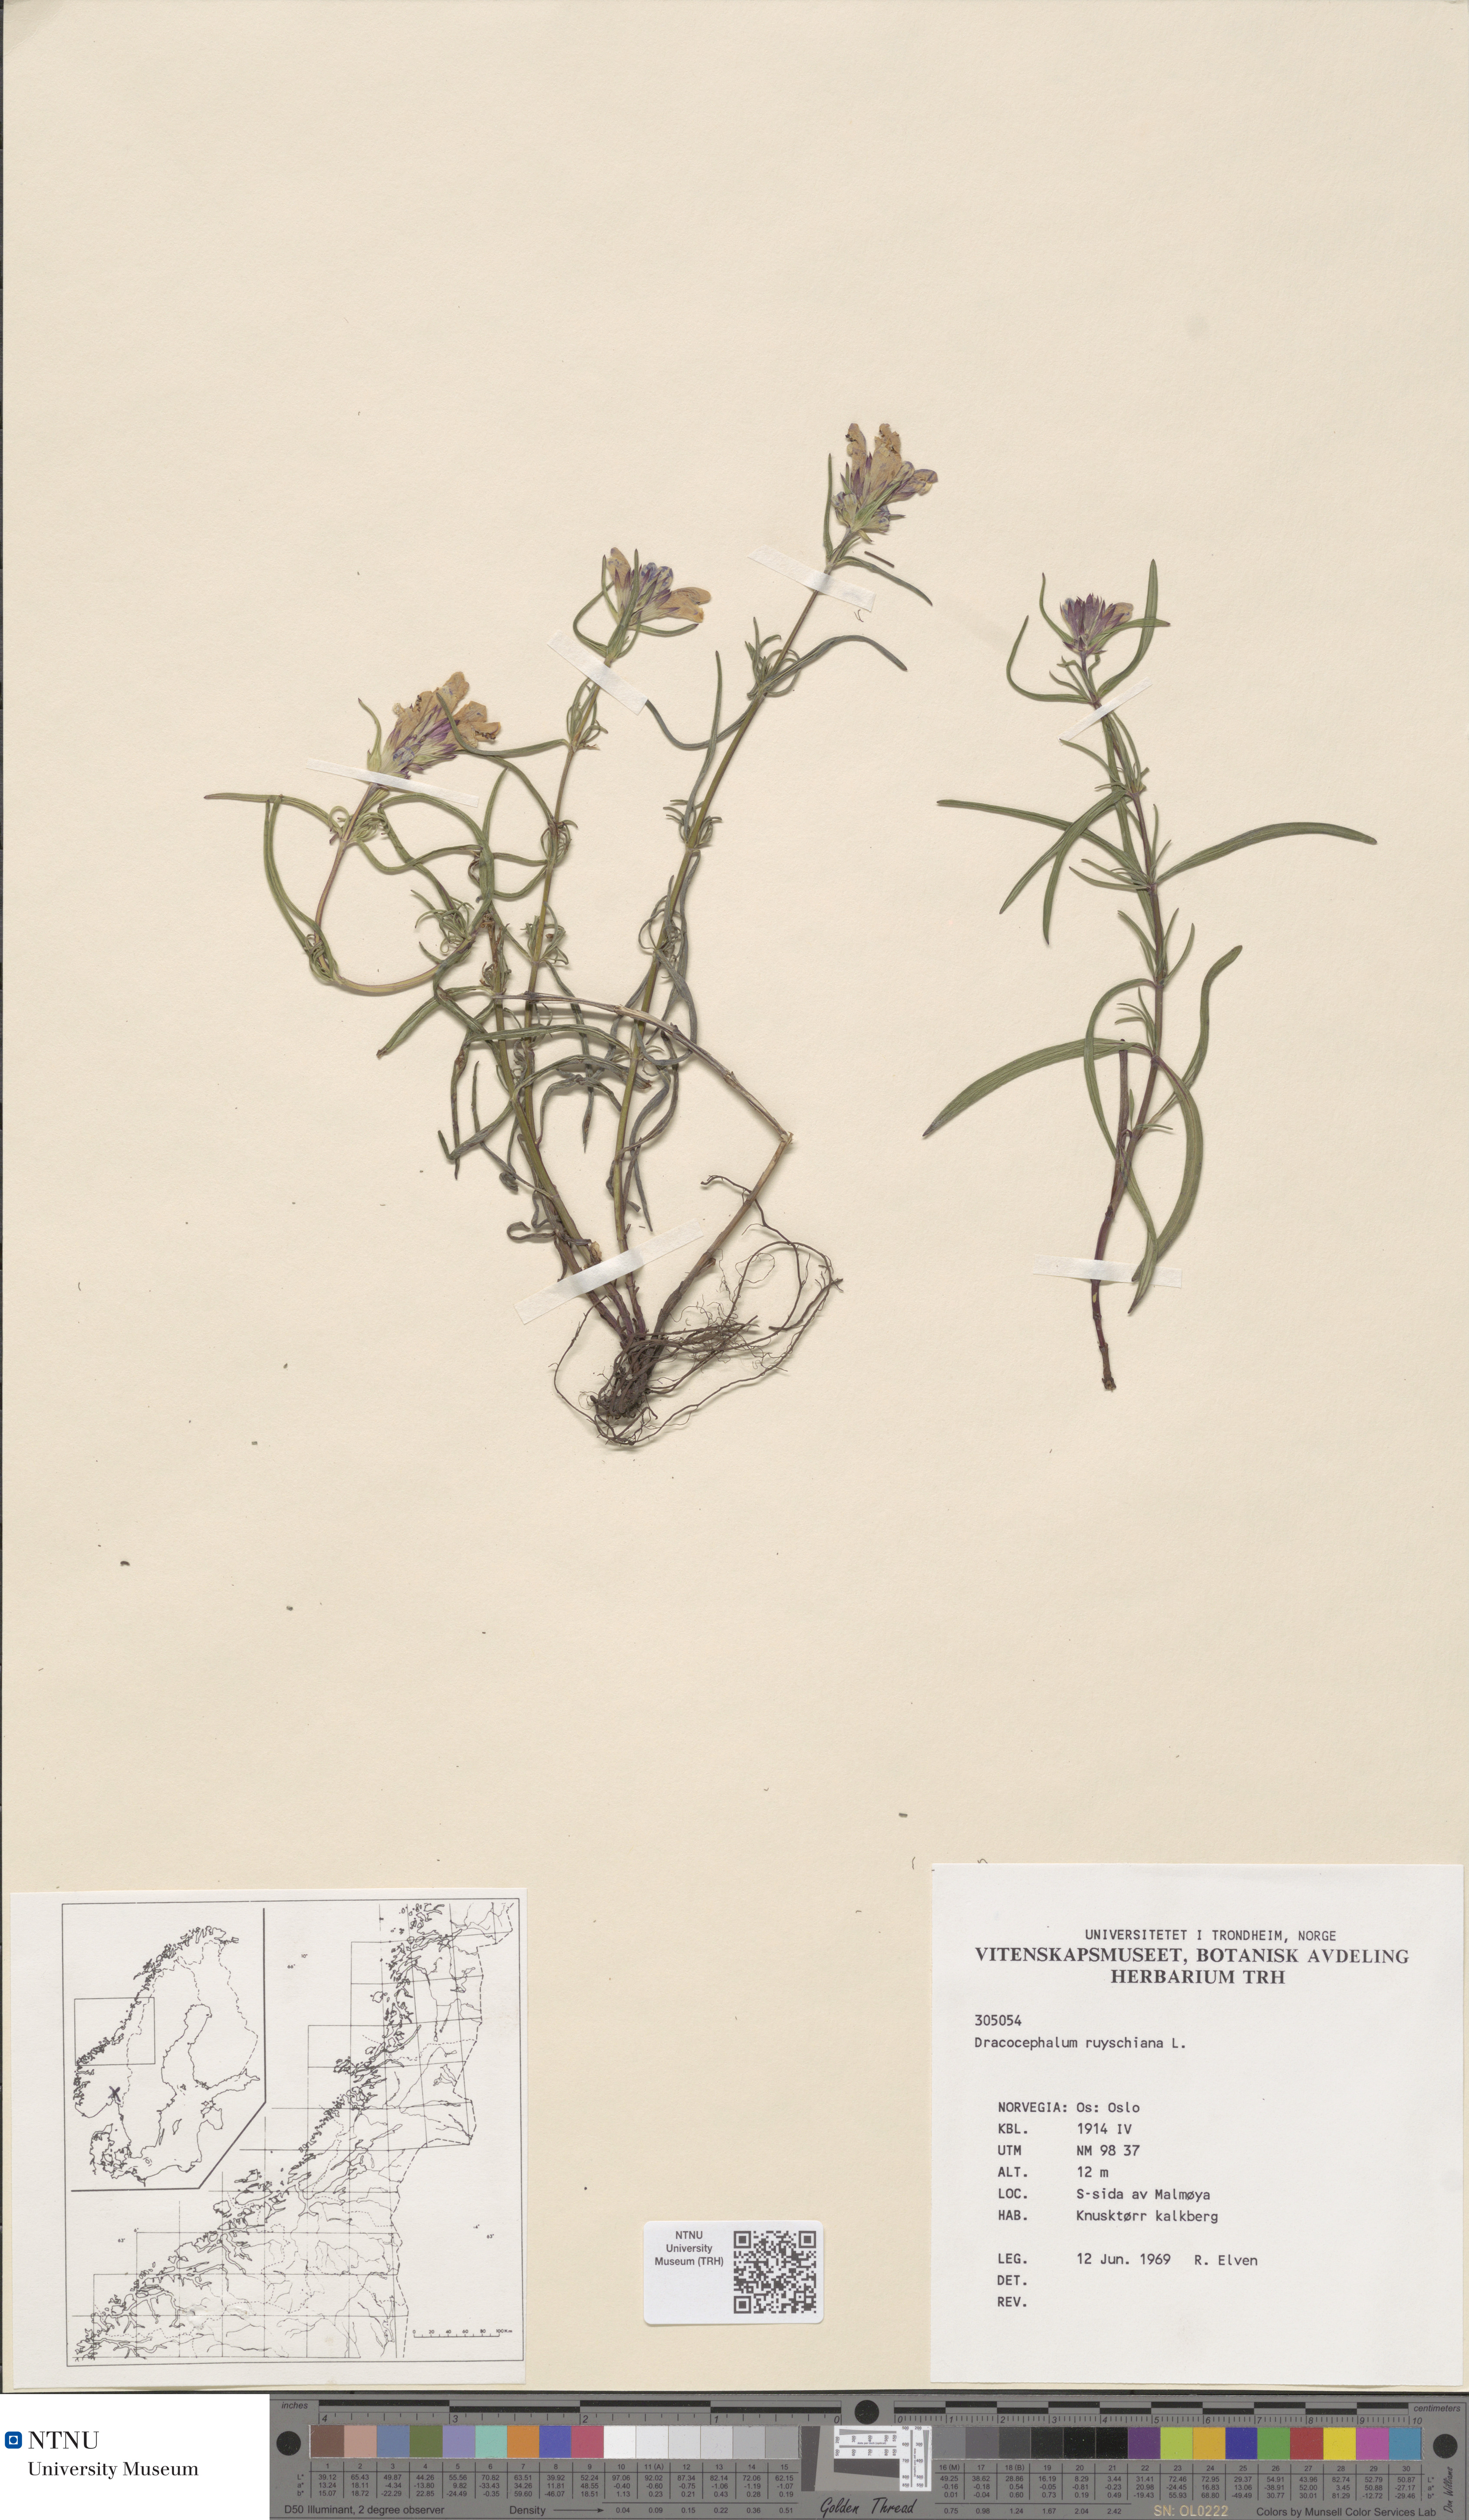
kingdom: Plantae
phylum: Tracheophyta
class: Magnoliopsida
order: Lamiales
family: Lamiaceae
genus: Dracocephalum
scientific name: Dracocephalum ruyschiana
